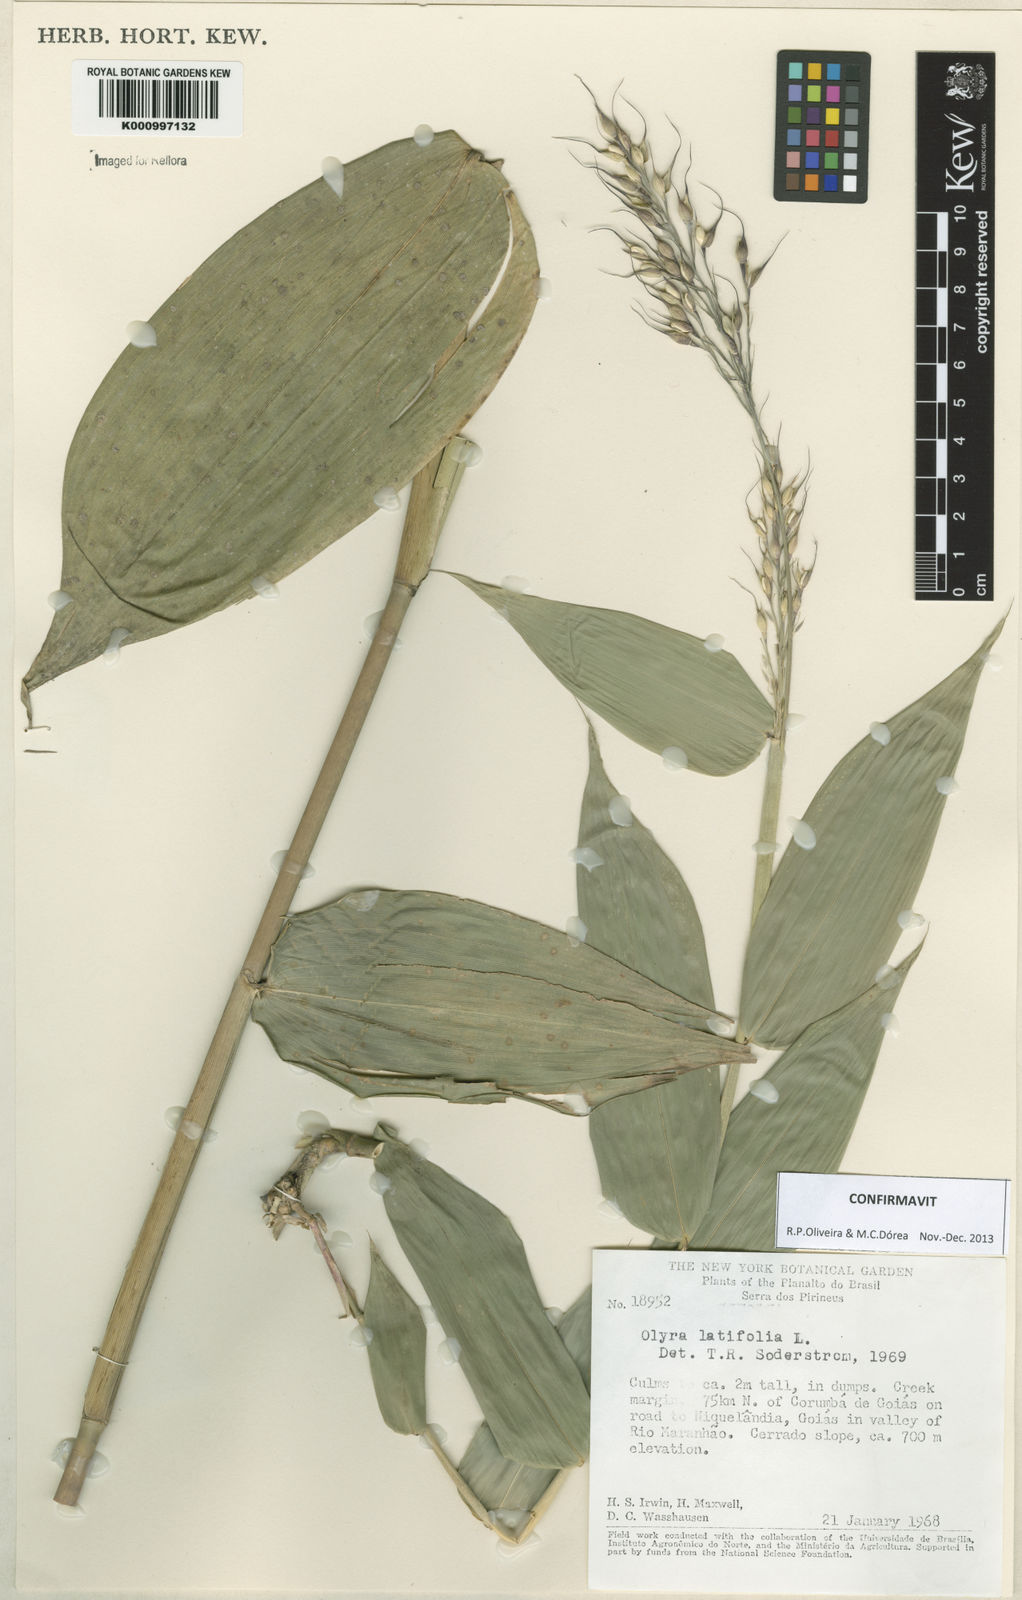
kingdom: Plantae
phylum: Tracheophyta
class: Liliopsida
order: Poales
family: Poaceae
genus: Olyra
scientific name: Olyra latifolia
